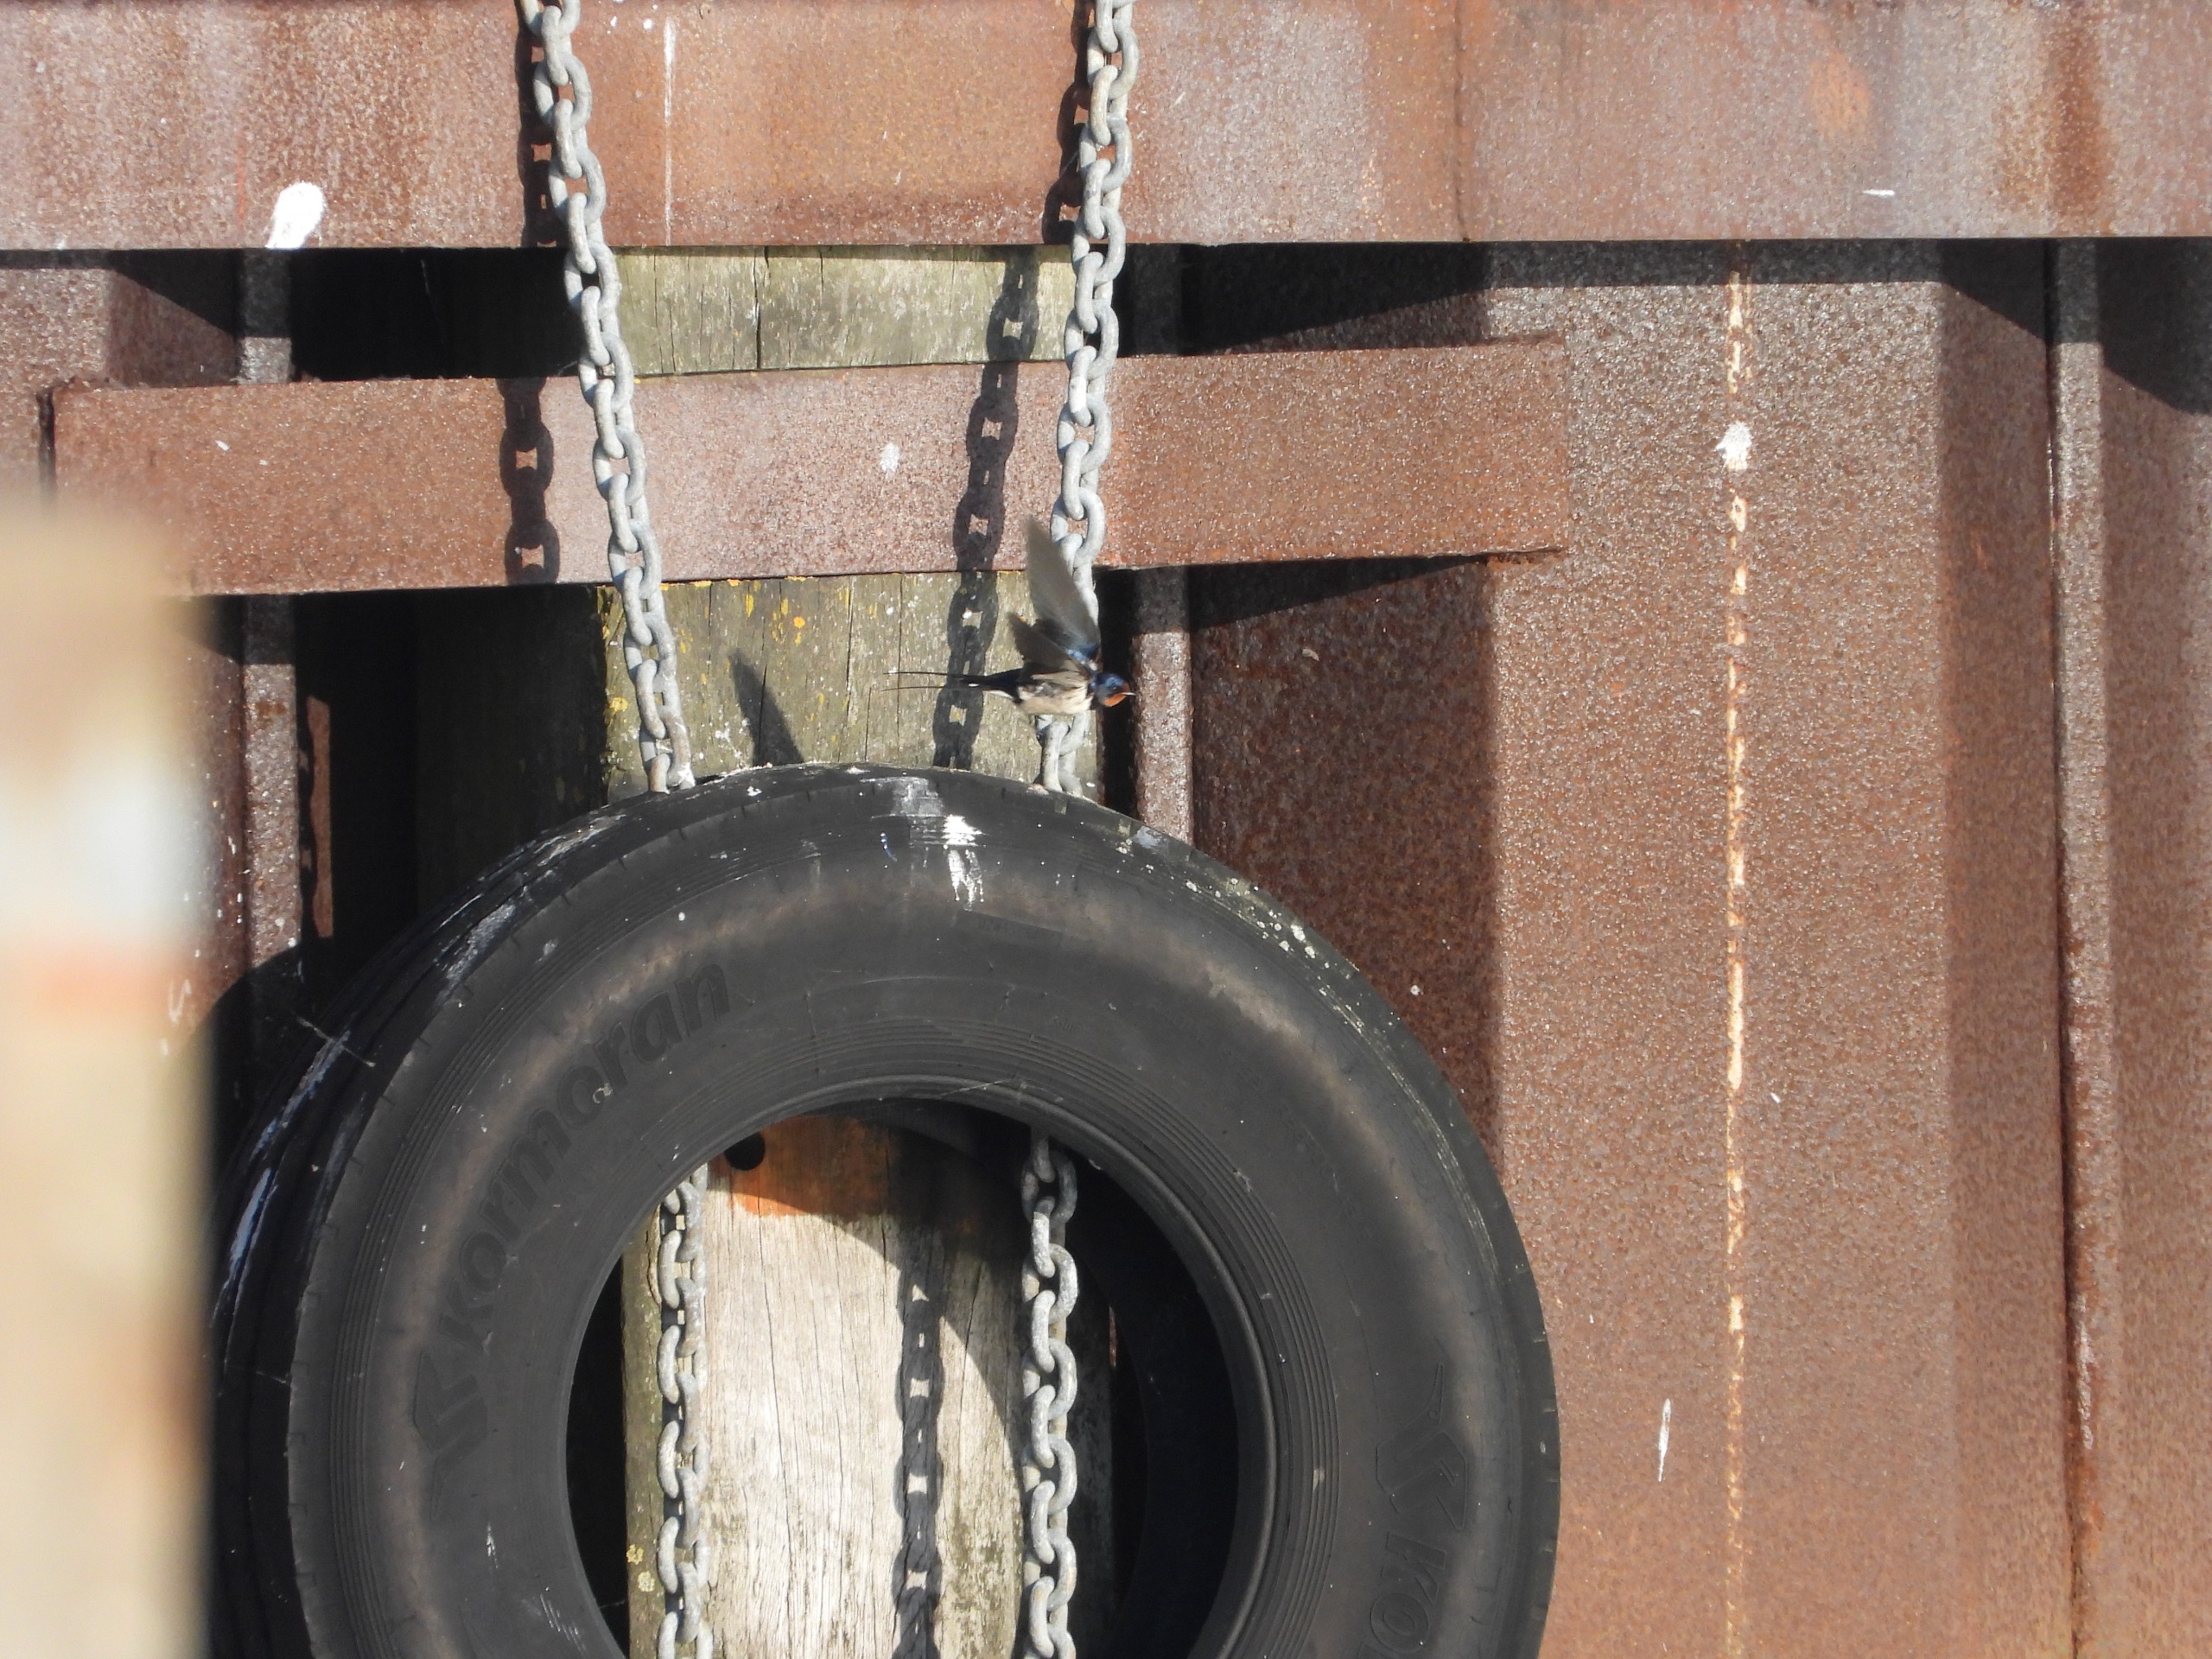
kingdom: Animalia
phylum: Chordata
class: Aves
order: Passeriformes
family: Hirundinidae
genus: Hirundo
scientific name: Hirundo rustica
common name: Landsvale
